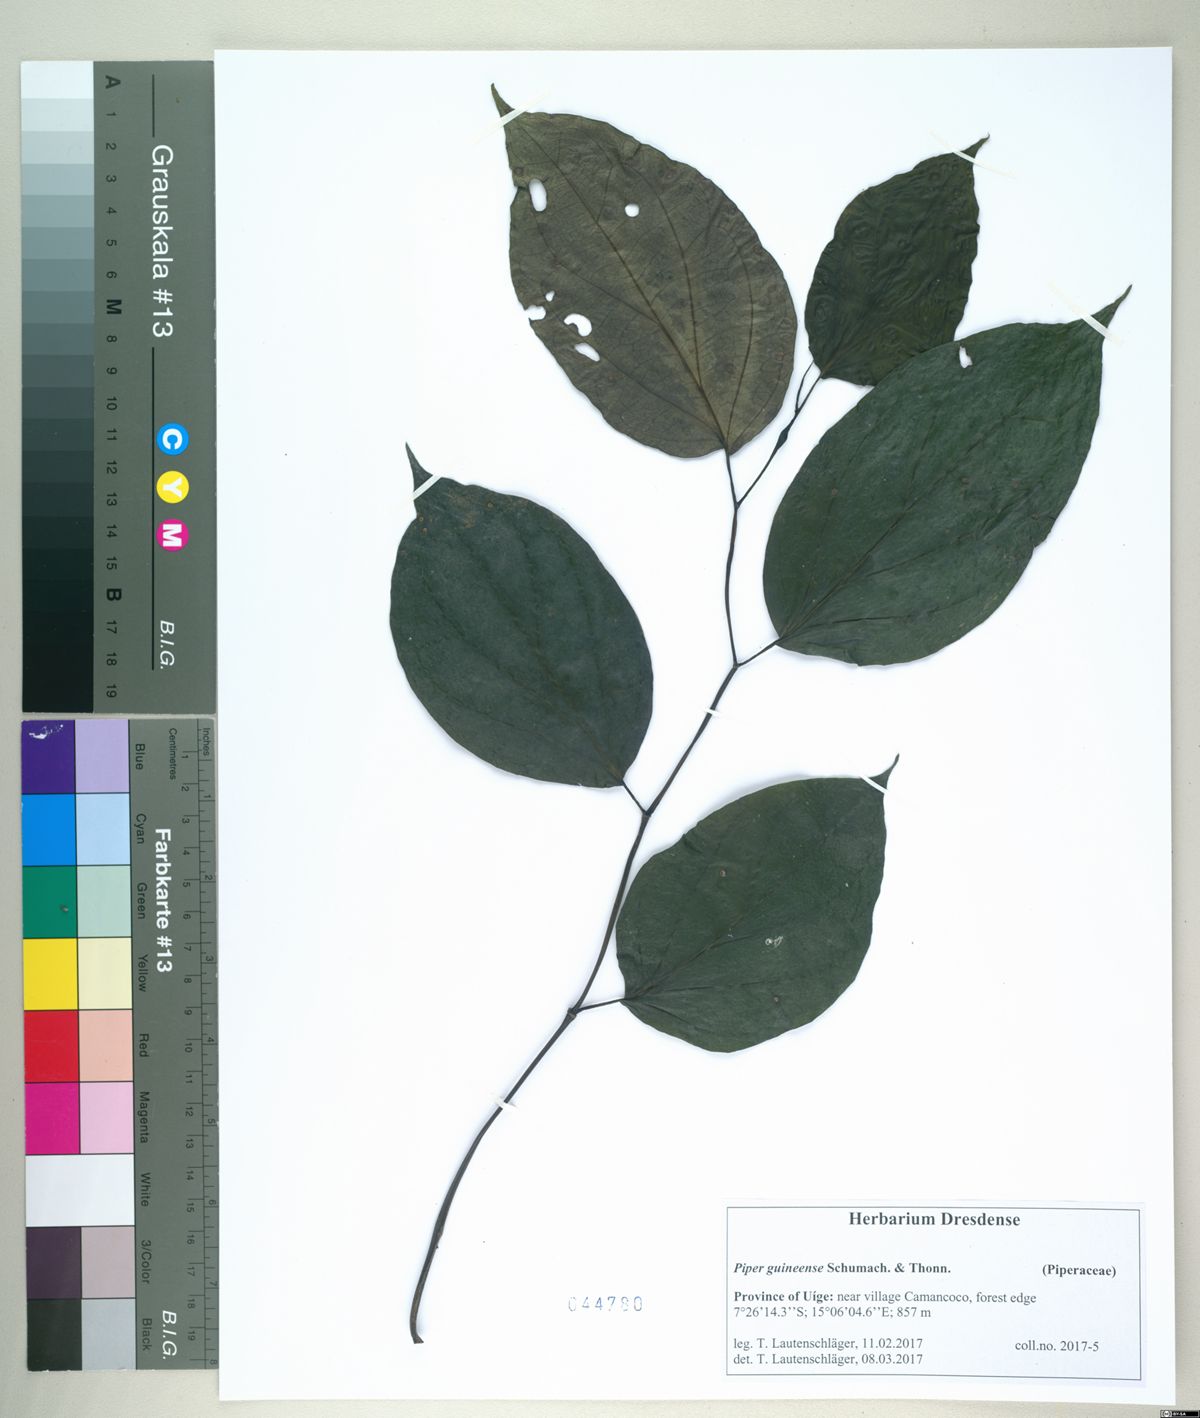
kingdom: Plantae
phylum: Tracheophyta
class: Magnoliopsida
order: Piperales
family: Piperaceae
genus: Piper
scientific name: Piper guineense
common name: Benin pepper
